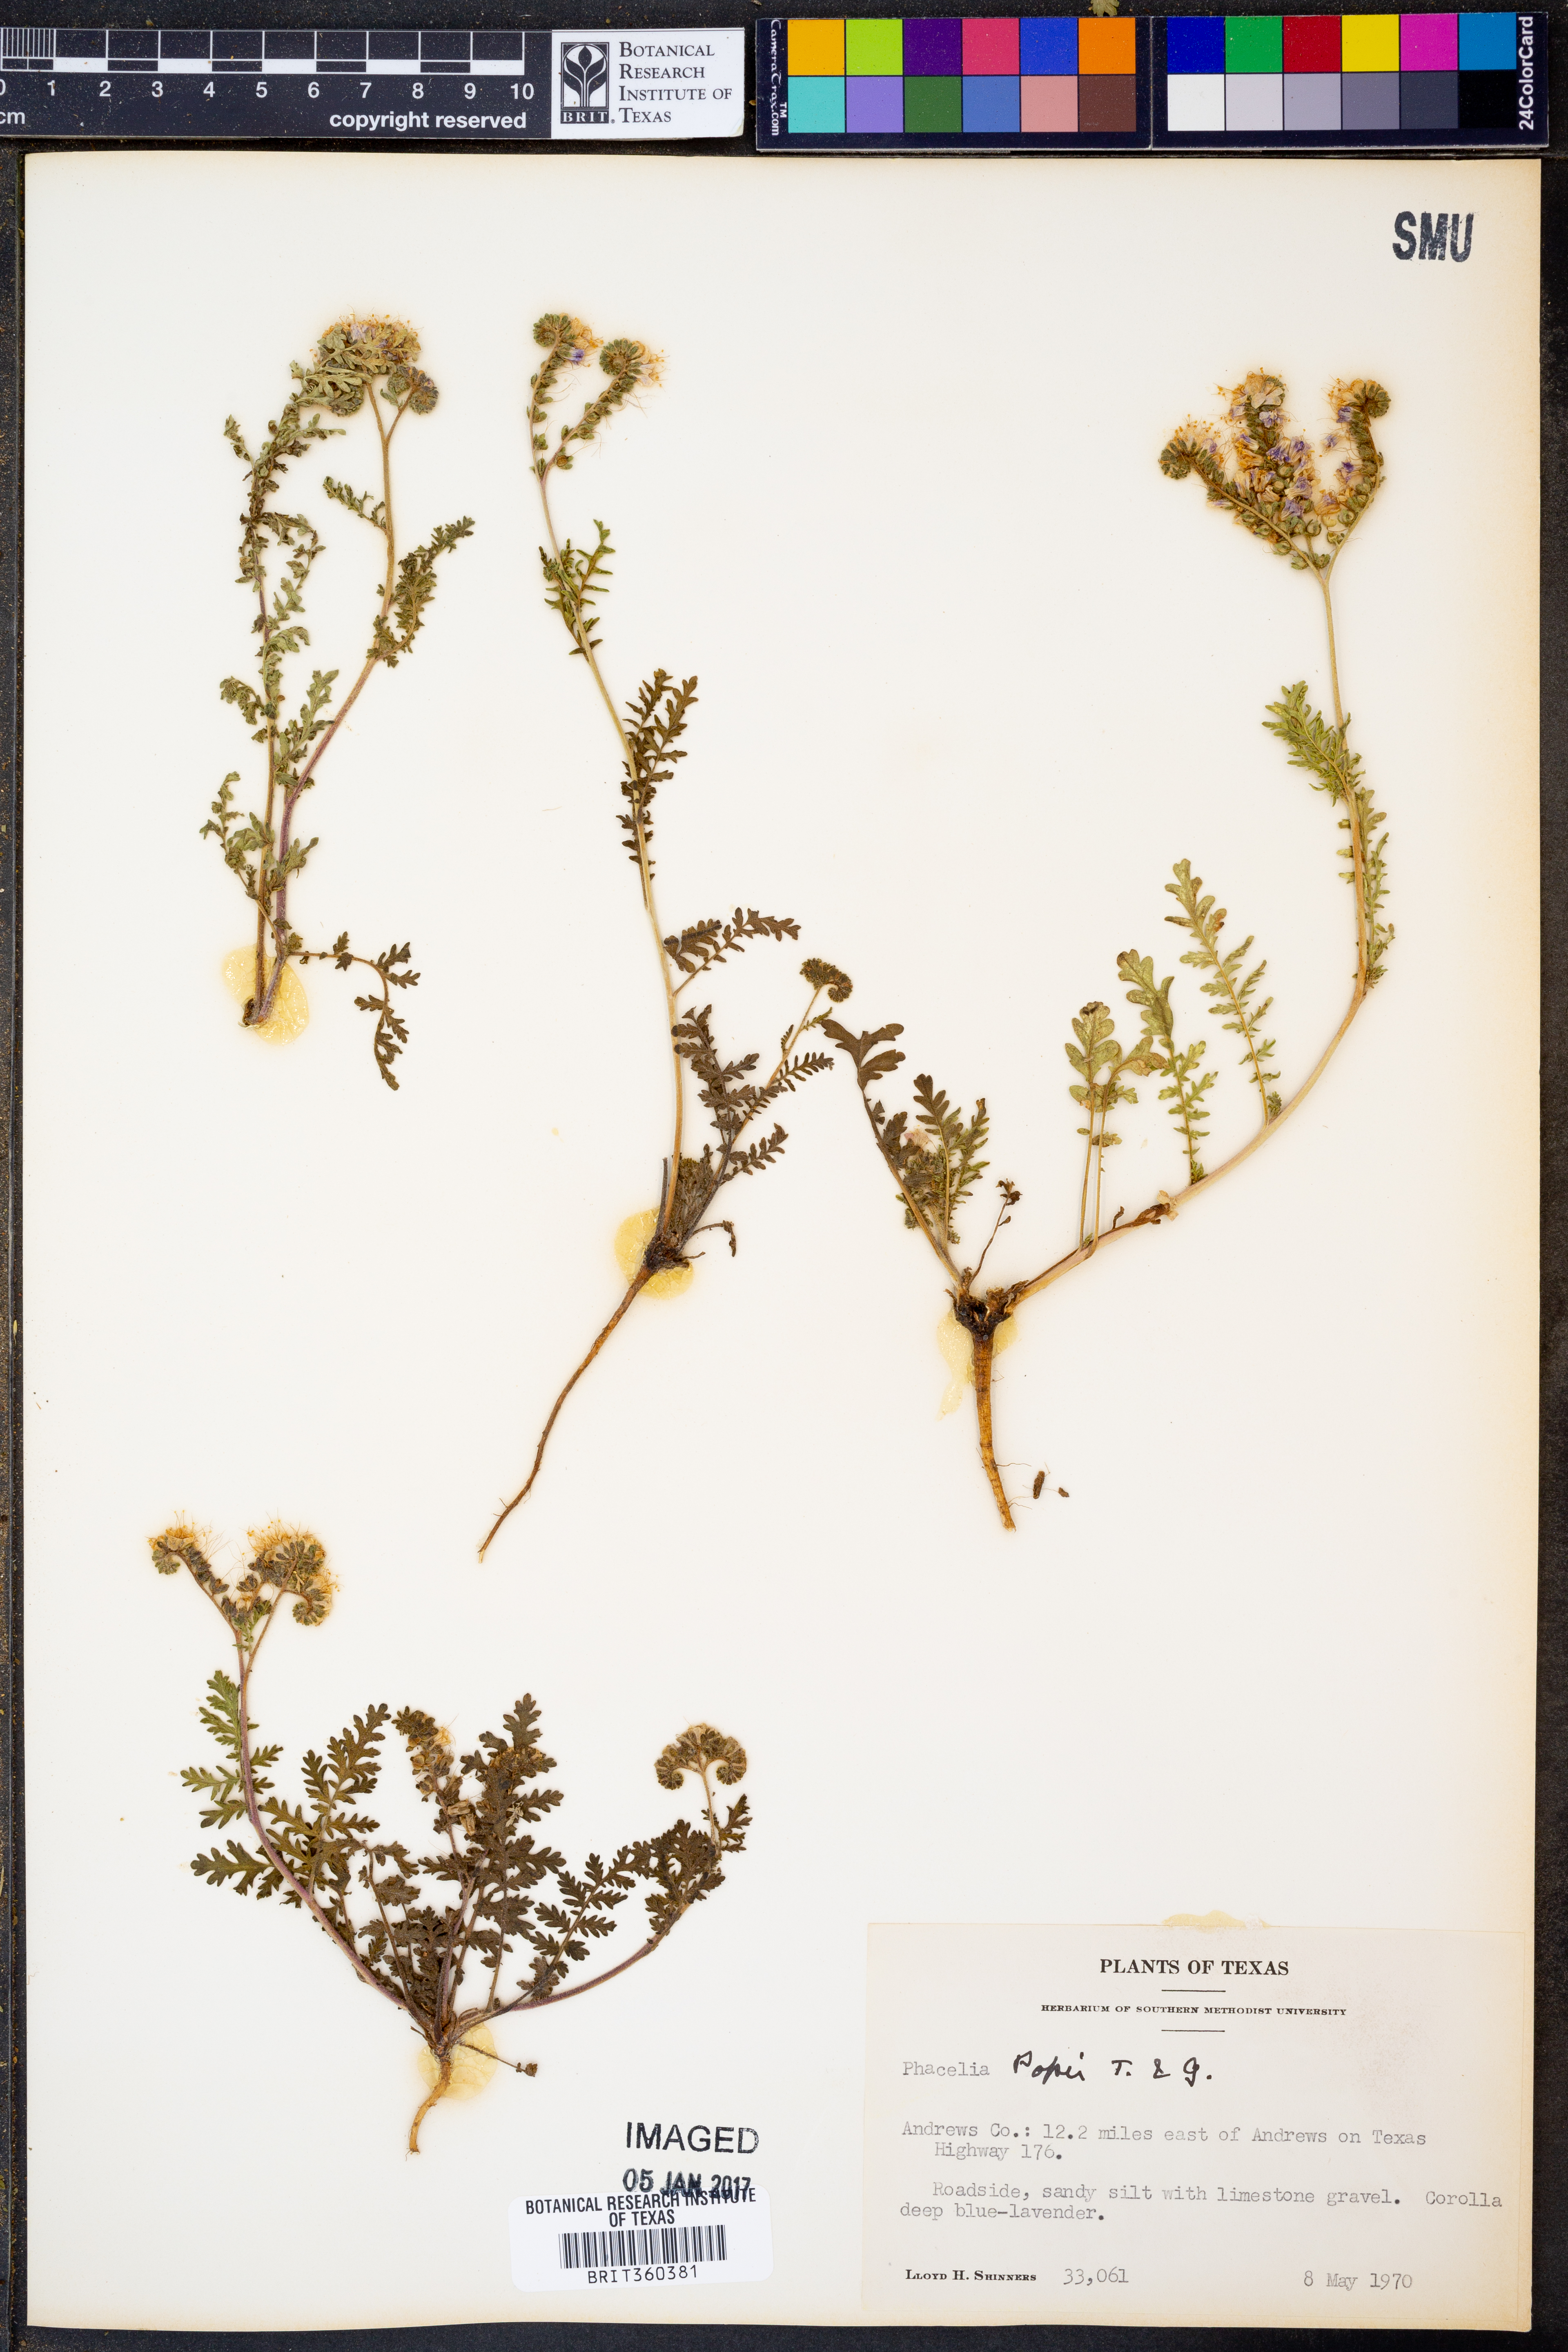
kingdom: Plantae
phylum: Tracheophyta
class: Magnoliopsida
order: Boraginales
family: Hydrophyllaceae
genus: Phacelia
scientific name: Phacelia popei
